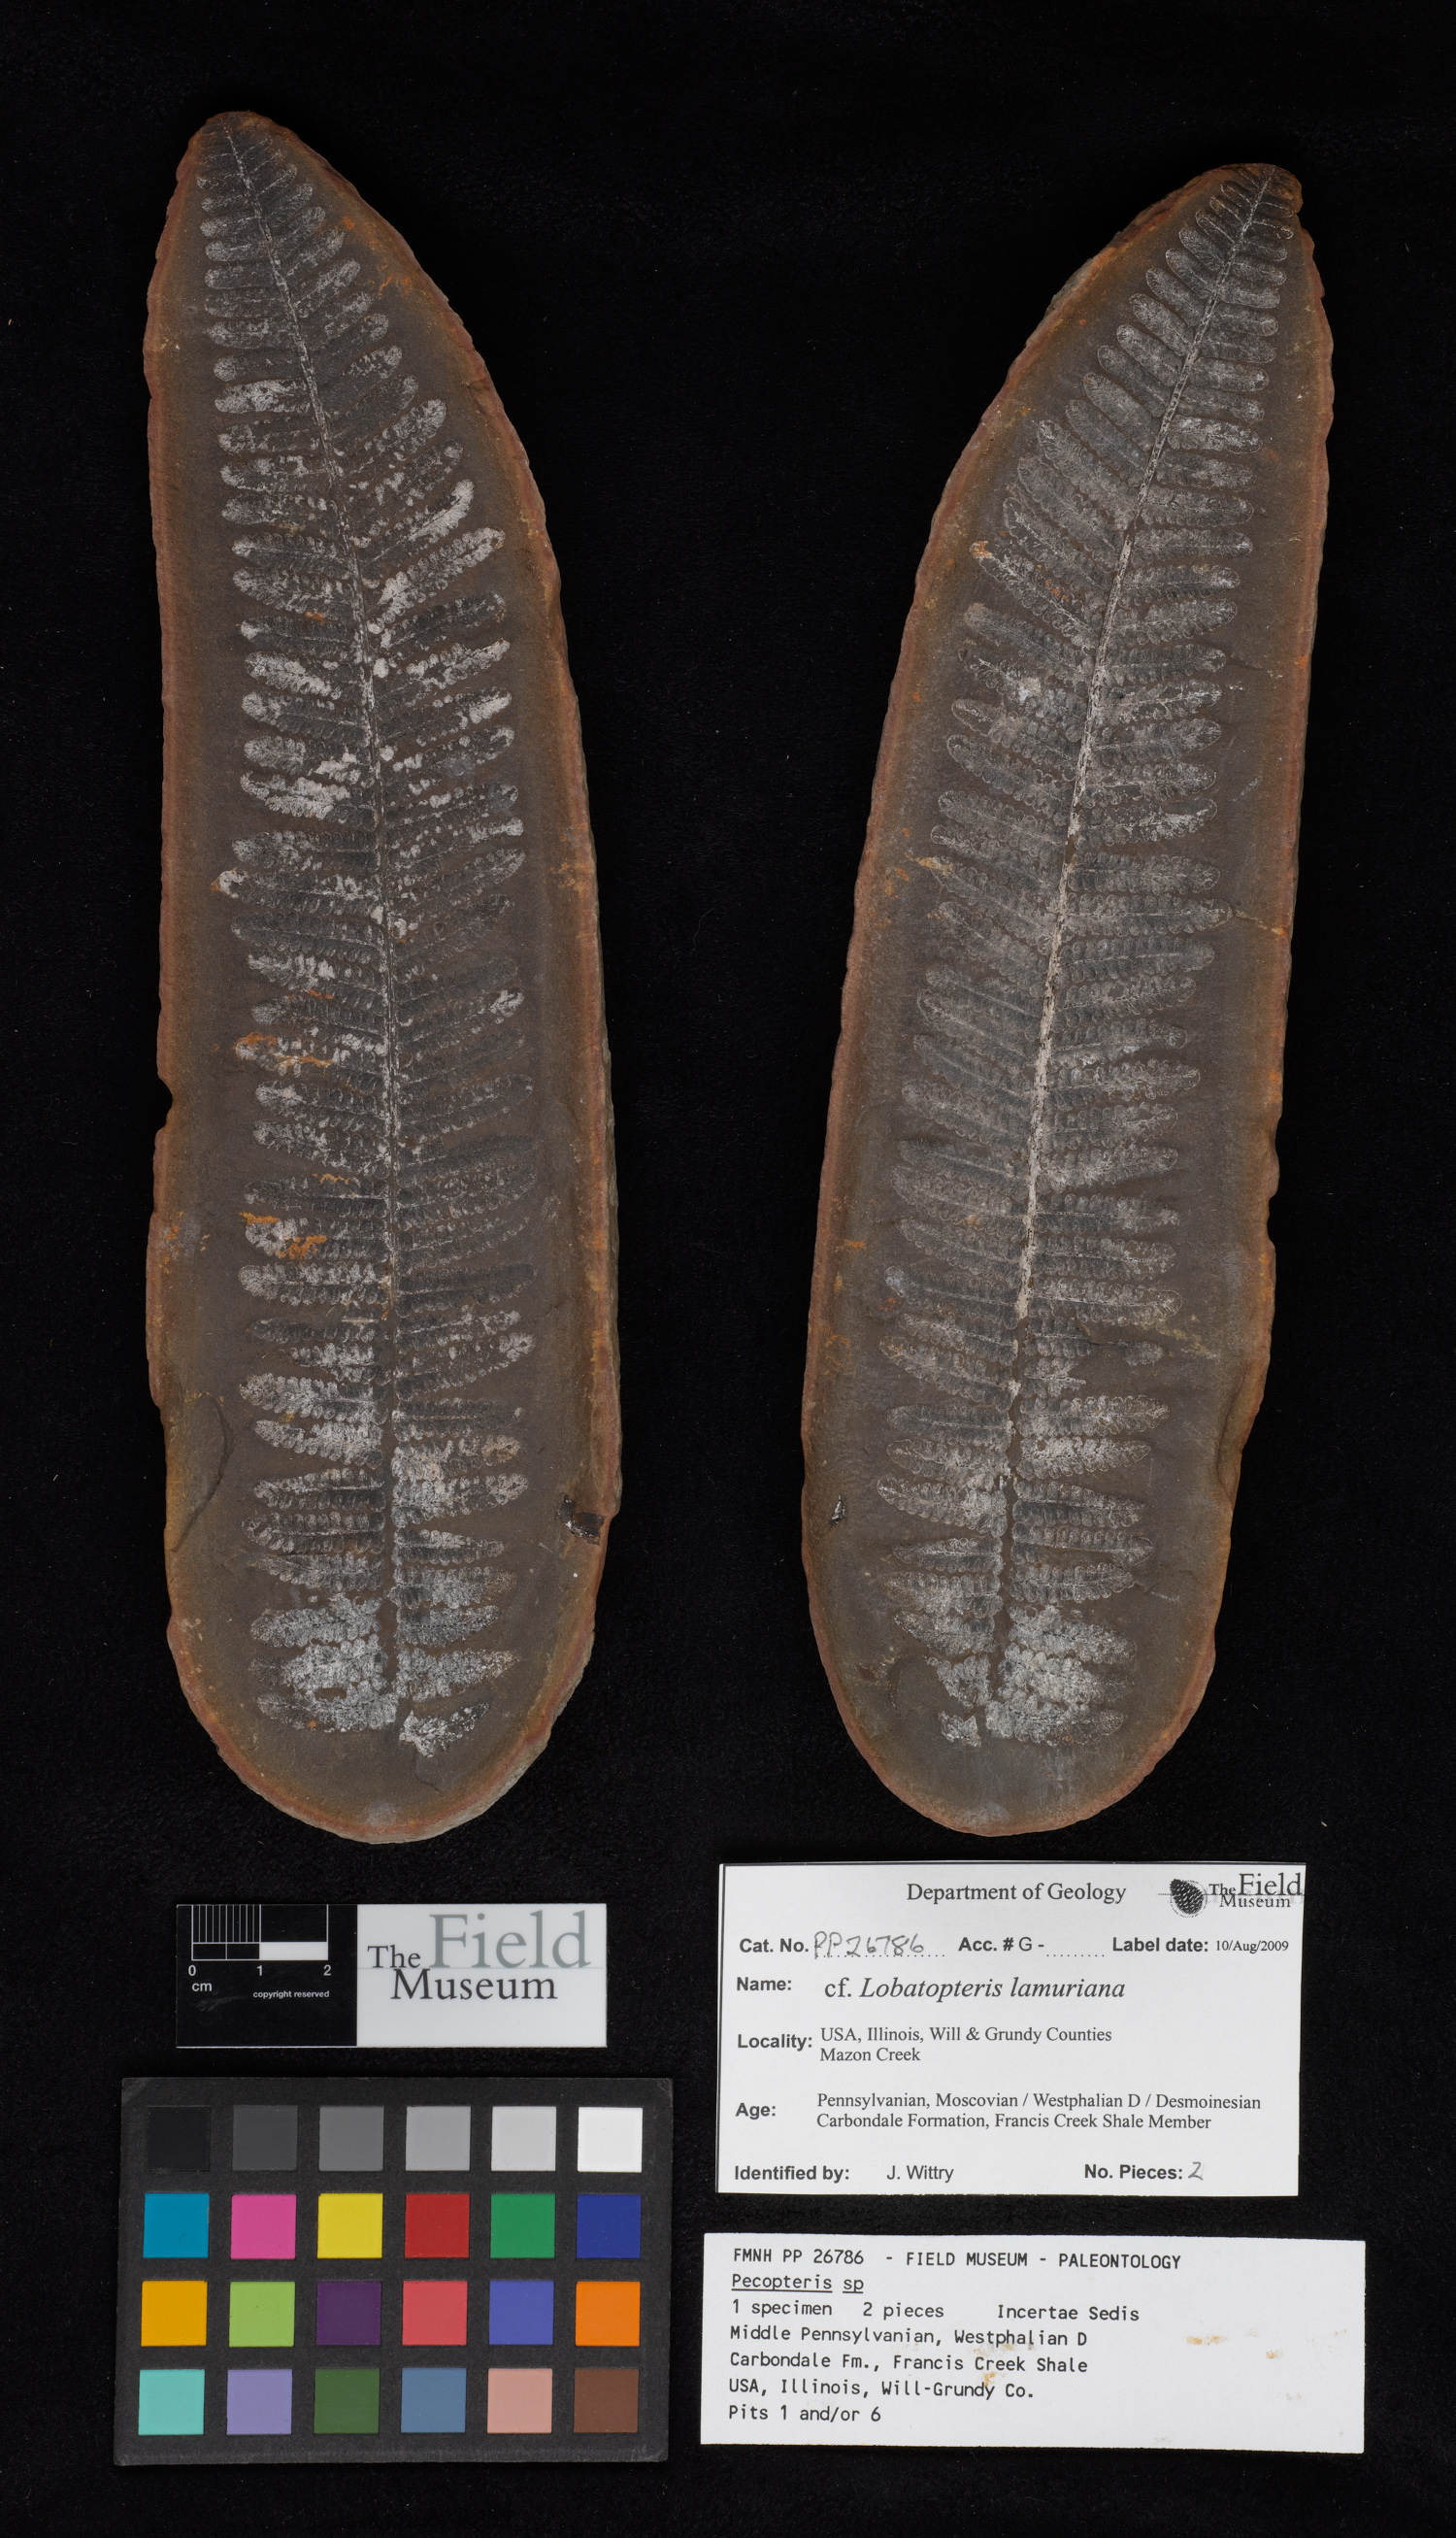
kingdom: Plantae
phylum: Tracheophyta
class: Polypodiopsida
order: Marattiales
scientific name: Marattiales
